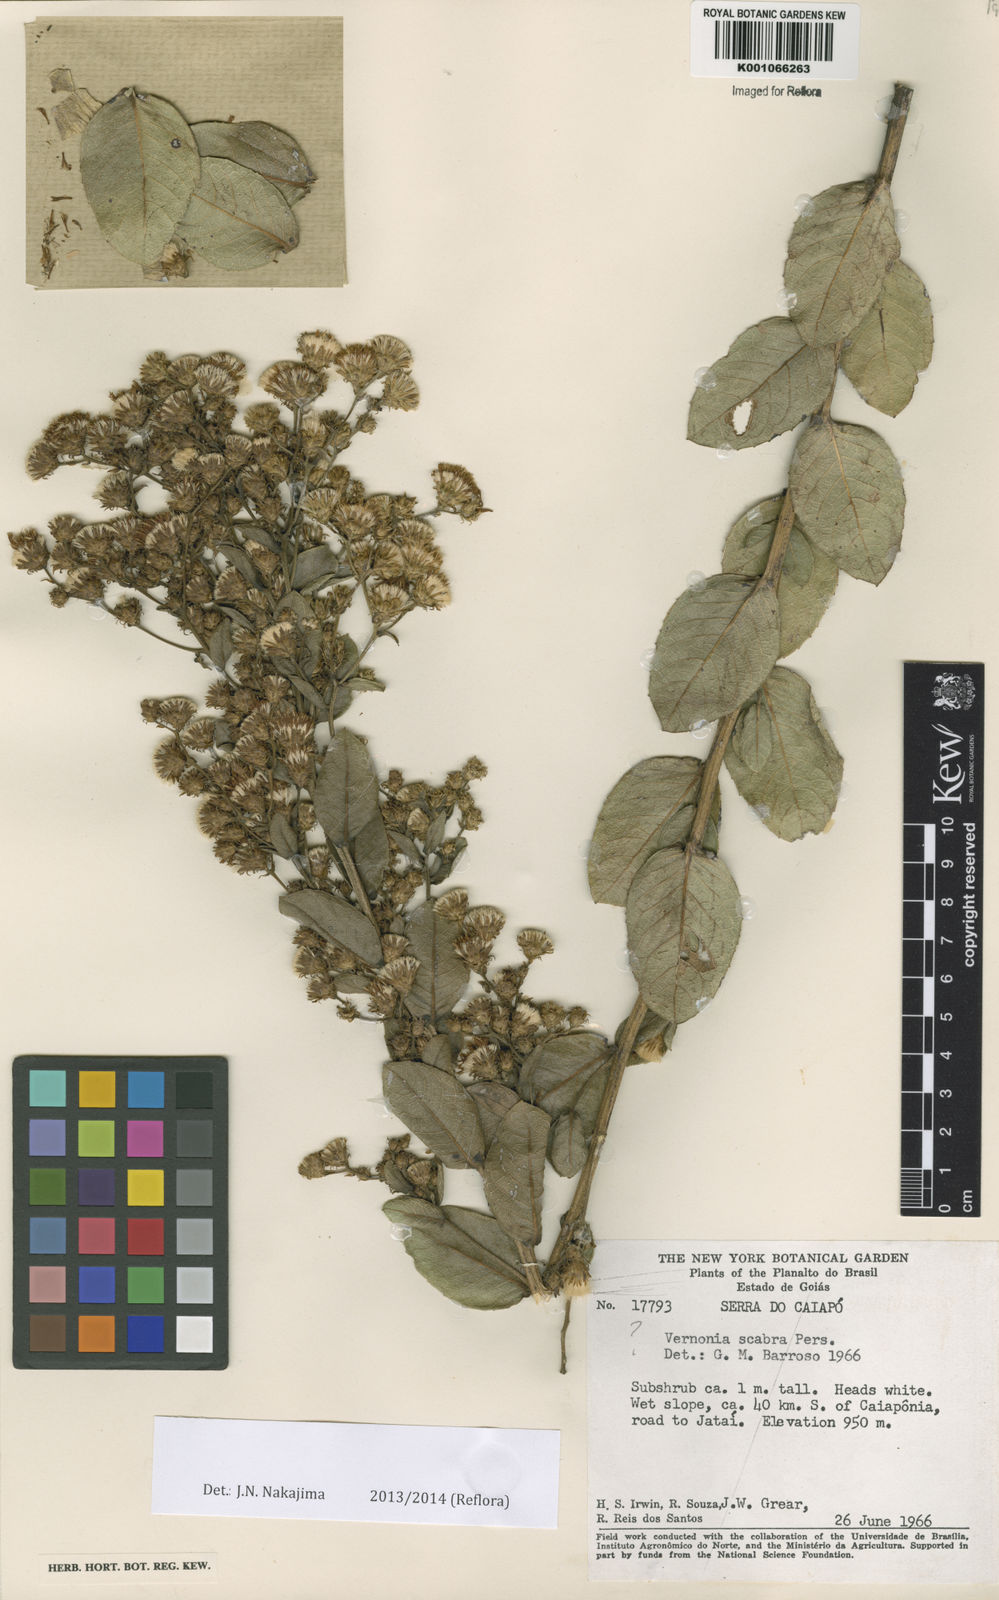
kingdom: Plantae
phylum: Tracheophyta
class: Magnoliopsida
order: Asterales
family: Asteraceae
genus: Vernonanthura
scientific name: Vernonanthura angulata
